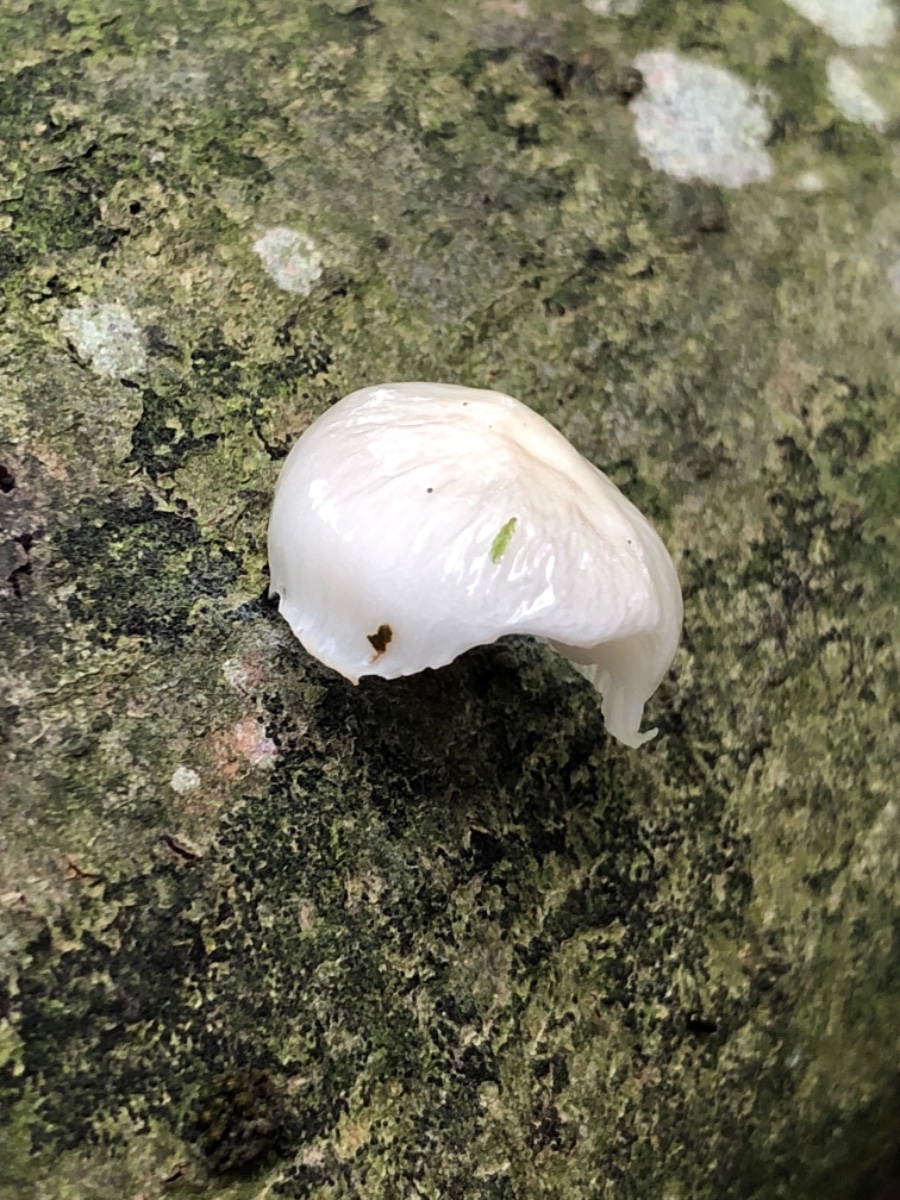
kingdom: Fungi
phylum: Basidiomycota
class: Agaricomycetes
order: Agaricales
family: Physalacriaceae
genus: Mucidula
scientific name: Mucidula mucida
